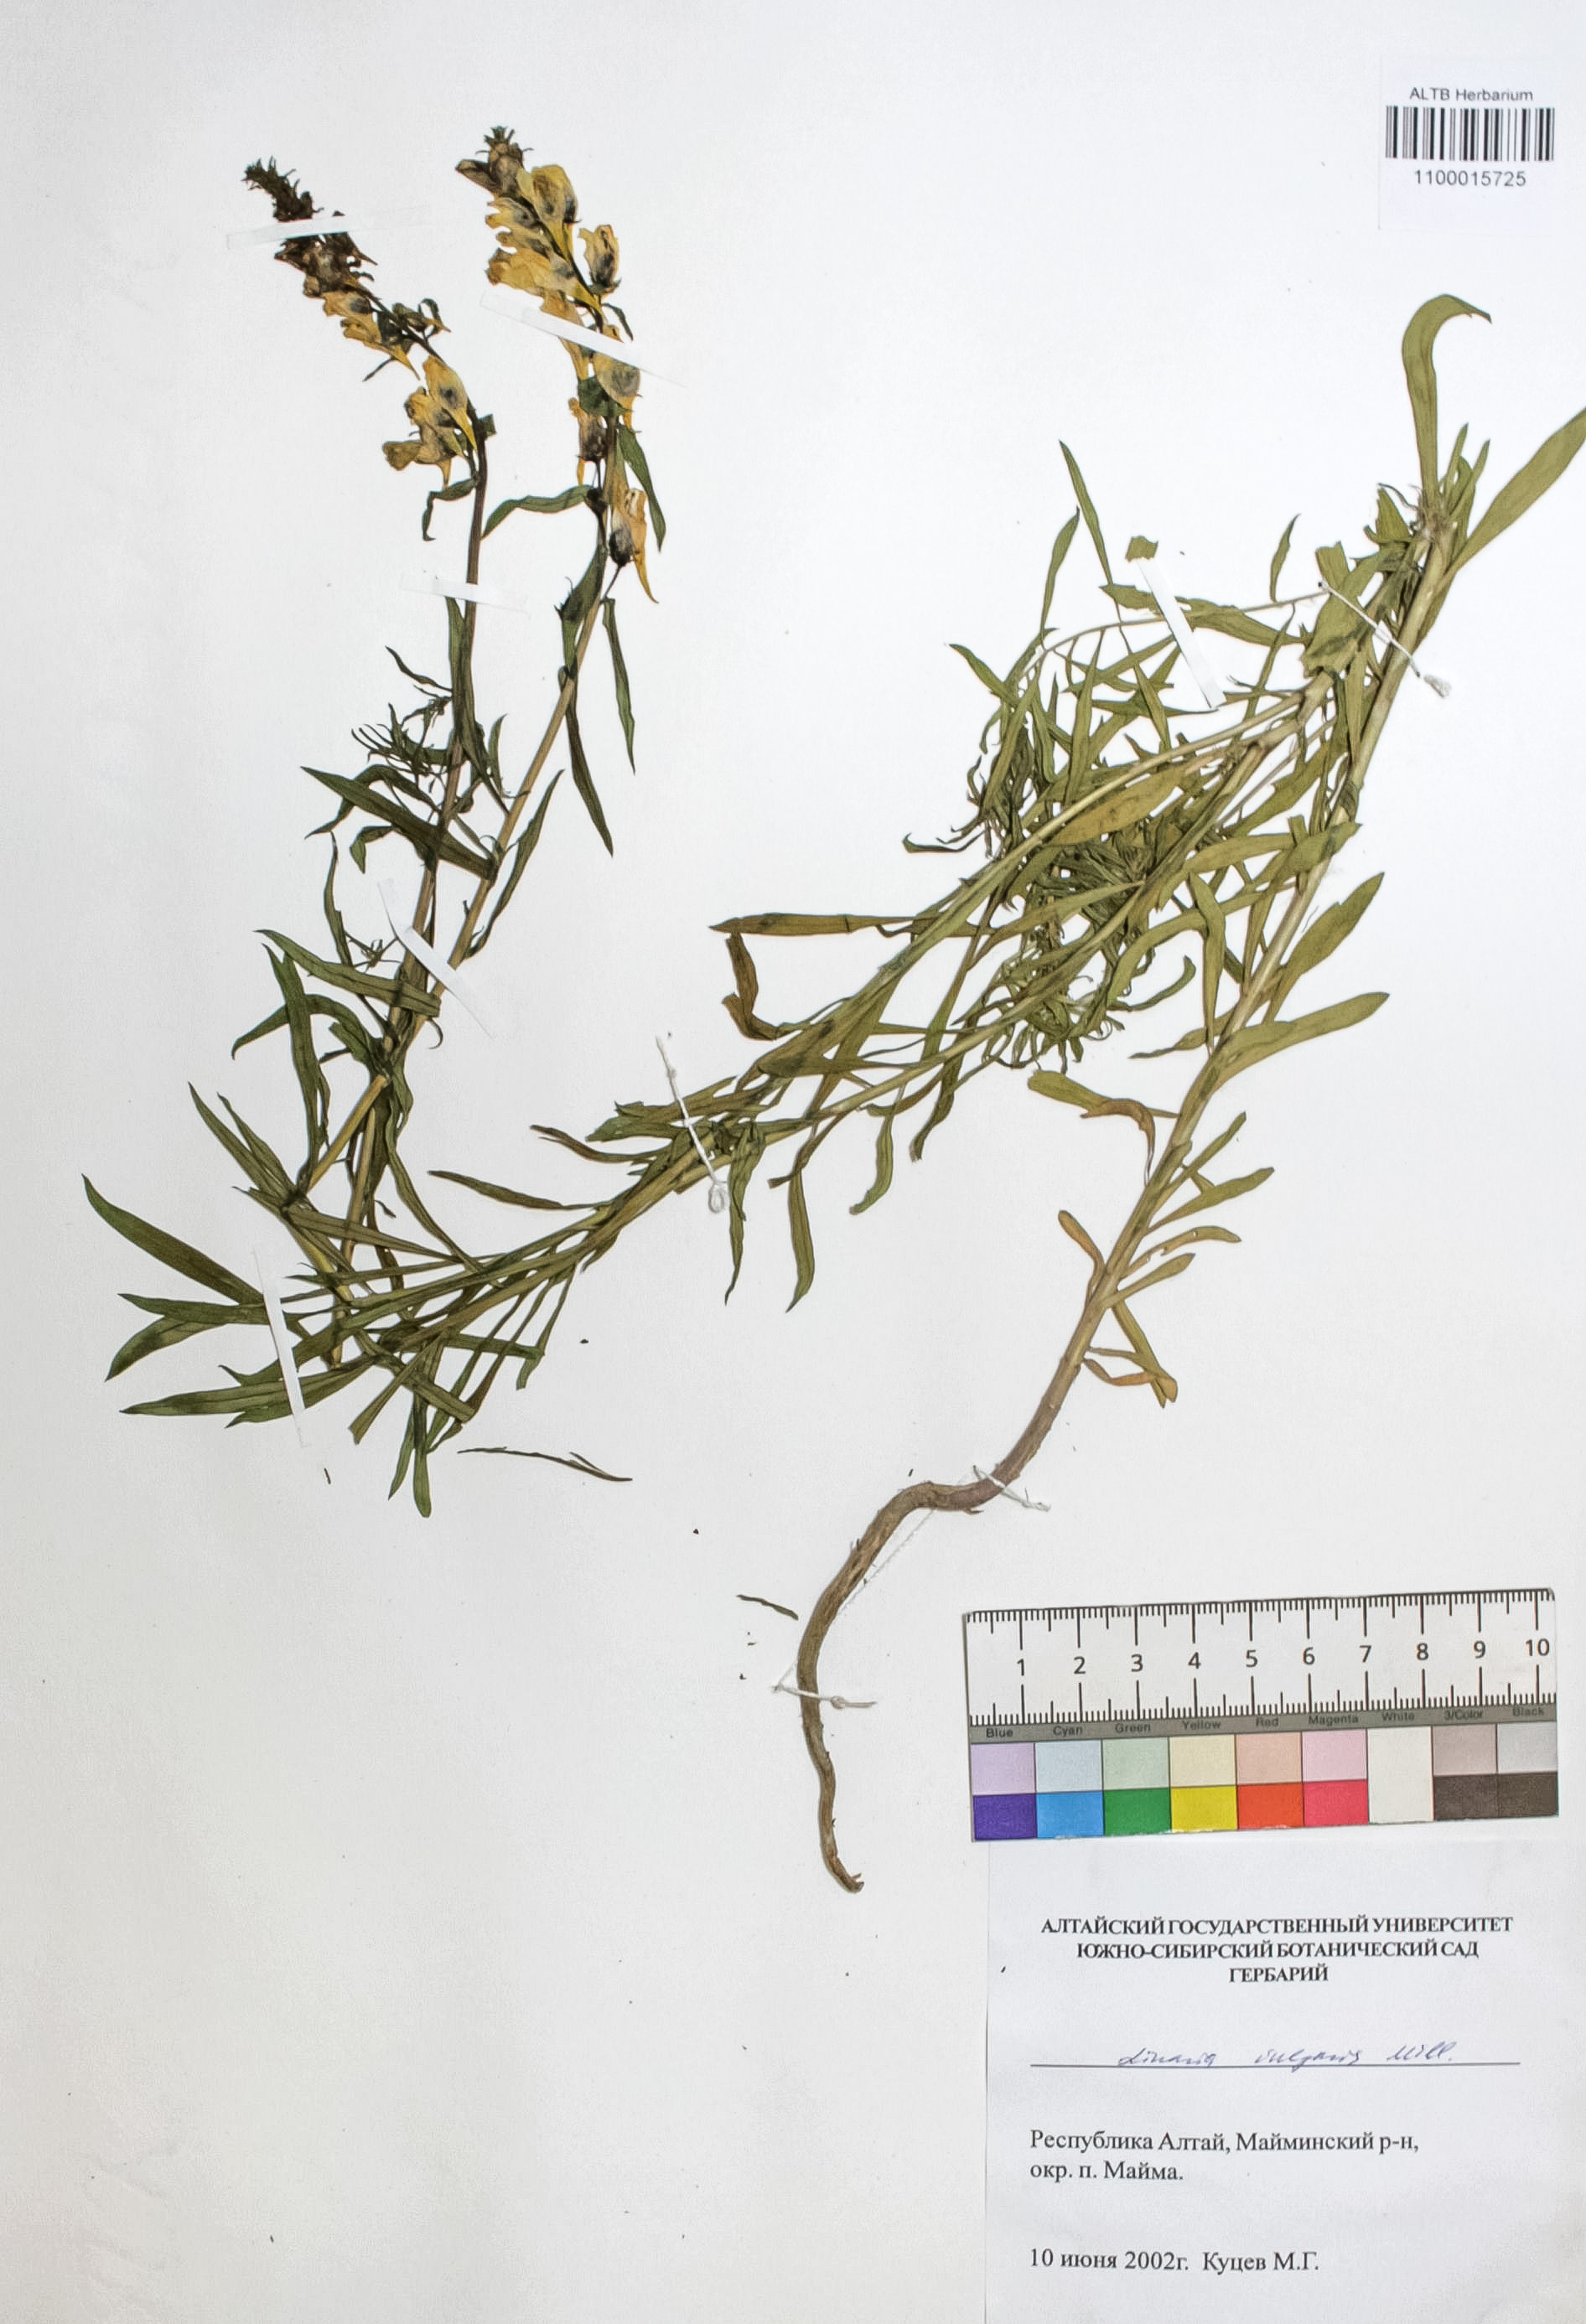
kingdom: Plantae
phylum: Tracheophyta
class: Magnoliopsida
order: Lamiales
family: Plantaginaceae
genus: Linaria
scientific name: Linaria vulgaris
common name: Butter and eggs
